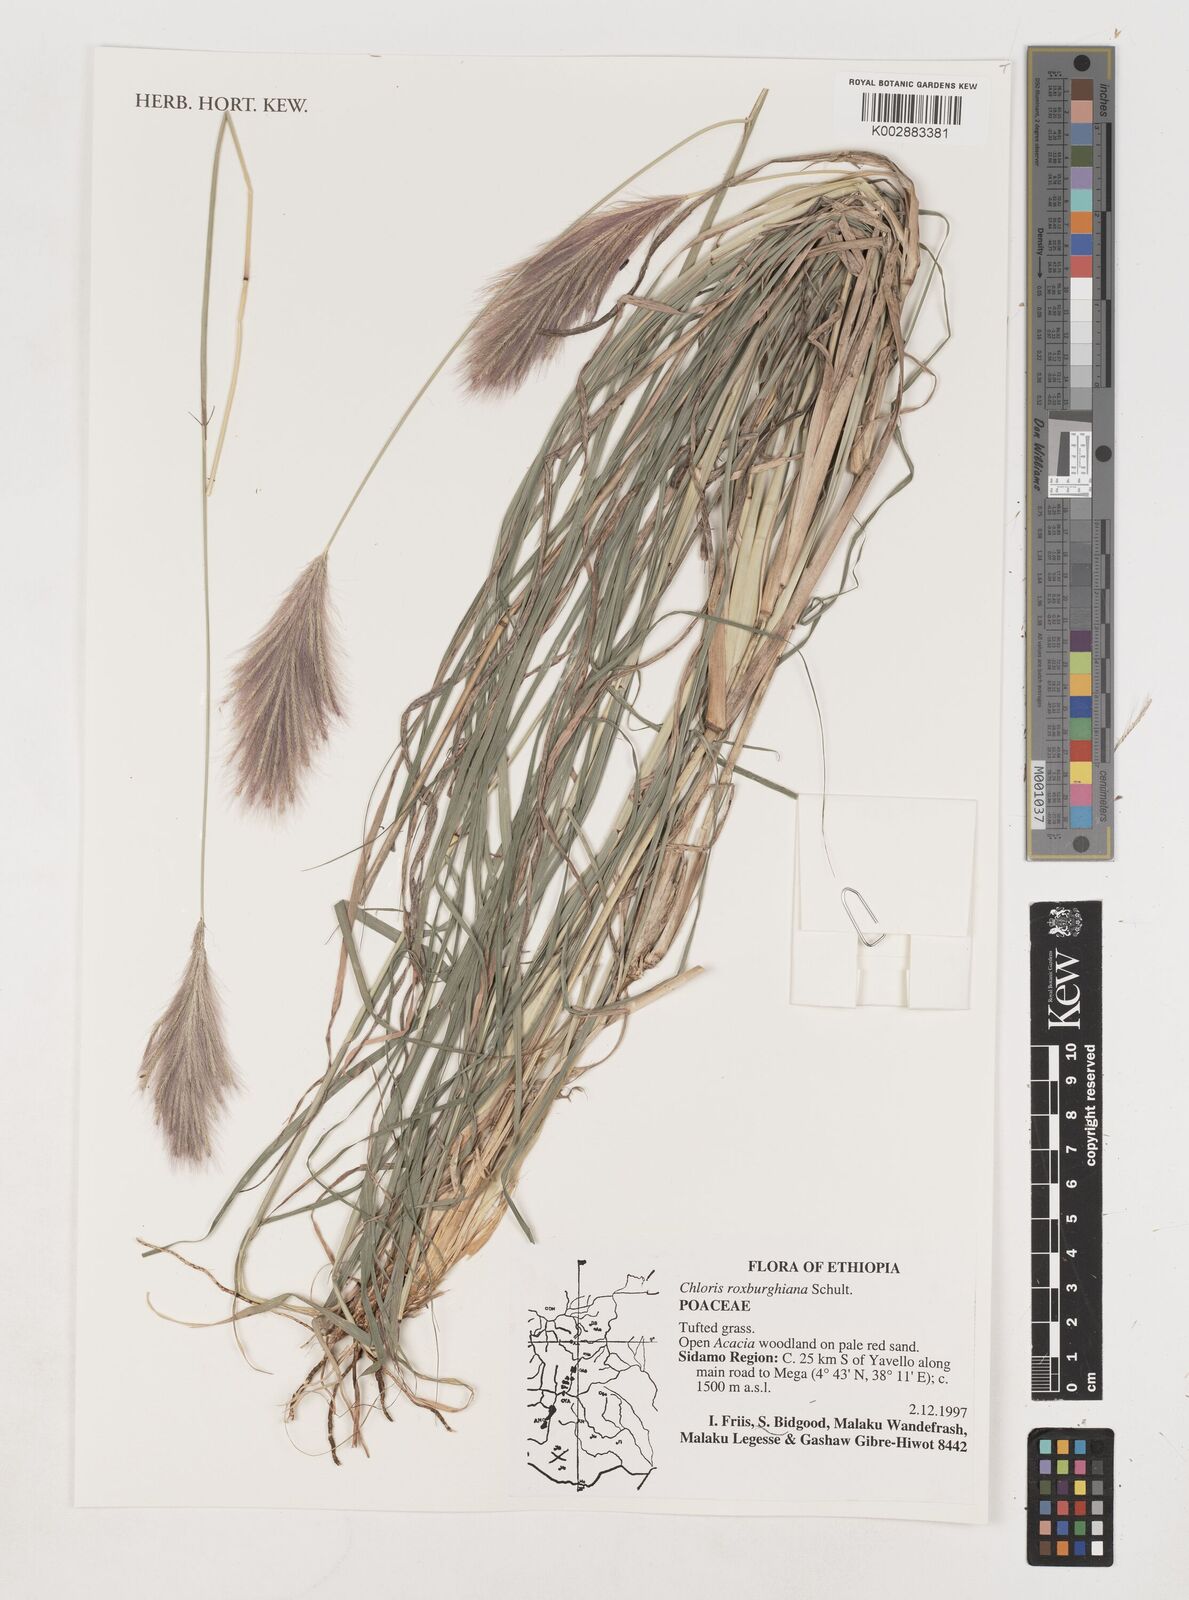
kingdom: Plantae
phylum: Tracheophyta
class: Liliopsida
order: Poales
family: Poaceae
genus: Tetrapogon
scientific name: Tetrapogon roxburghiana
